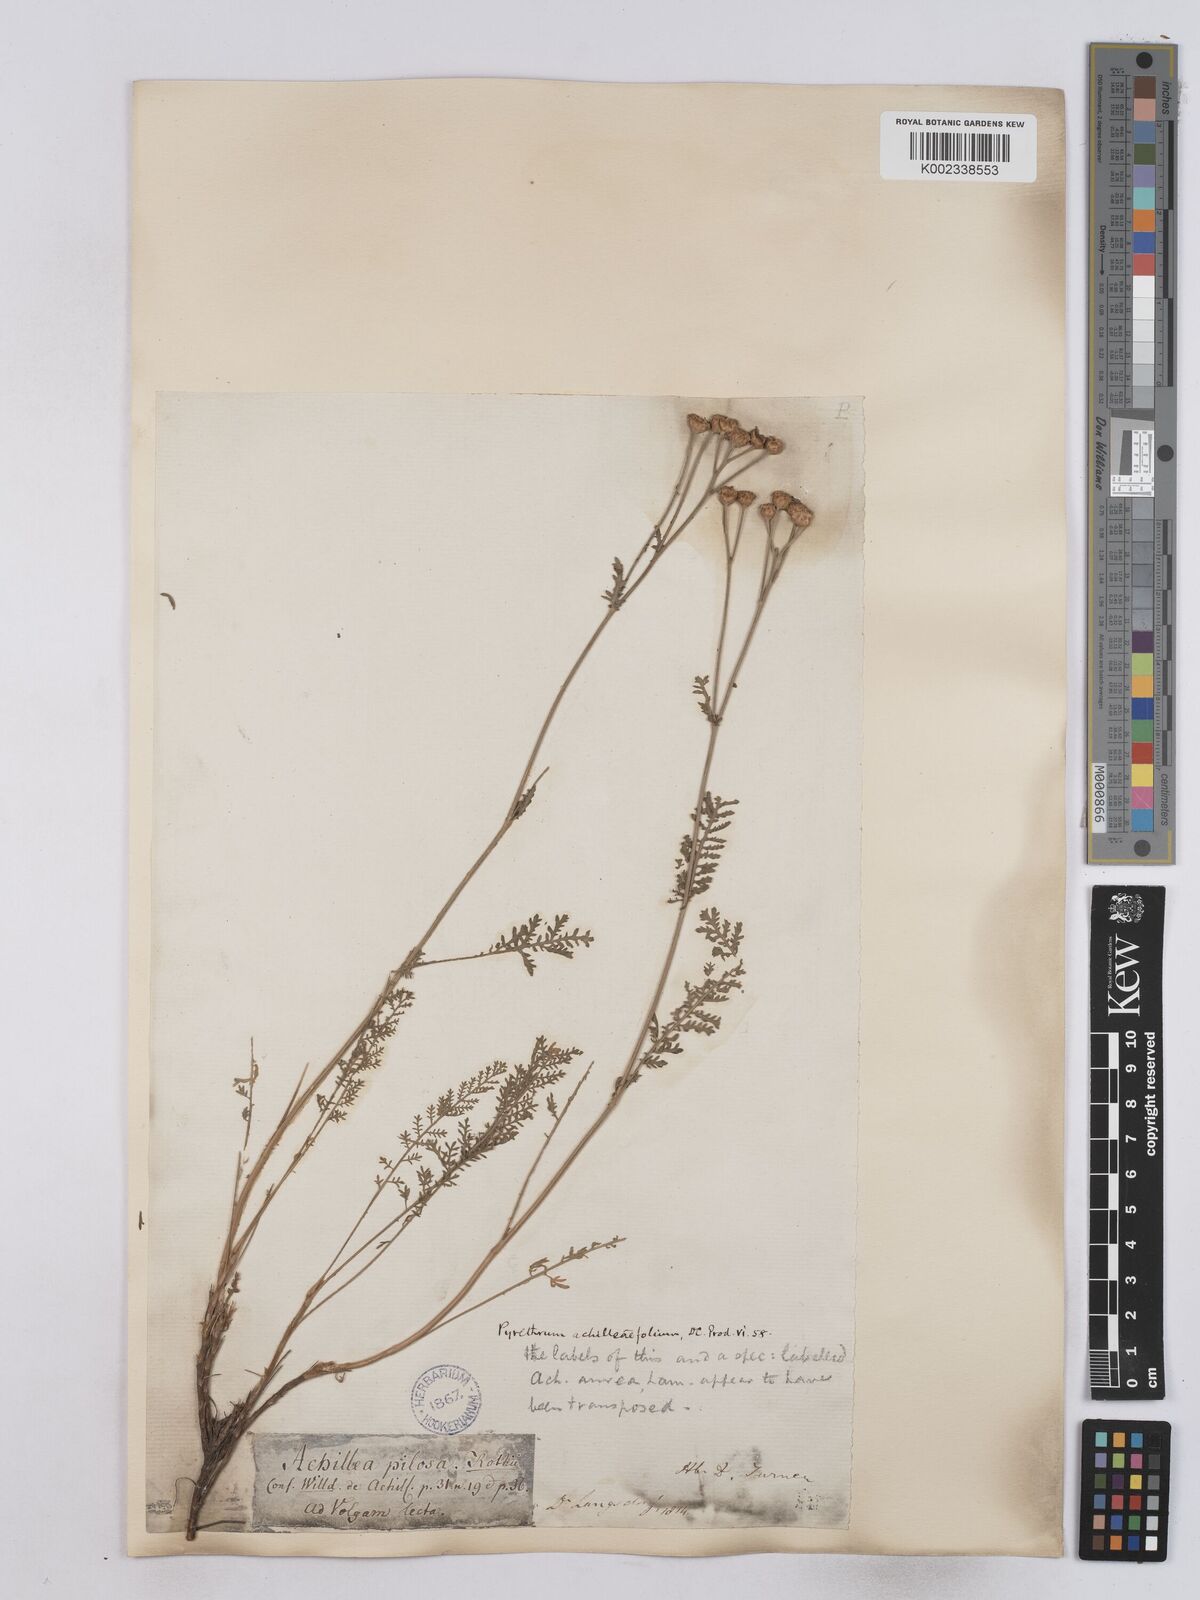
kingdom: Plantae
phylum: Tracheophyta
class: Magnoliopsida
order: Asterales
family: Asteraceae
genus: Tanacetum
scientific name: Tanacetum millefolium
